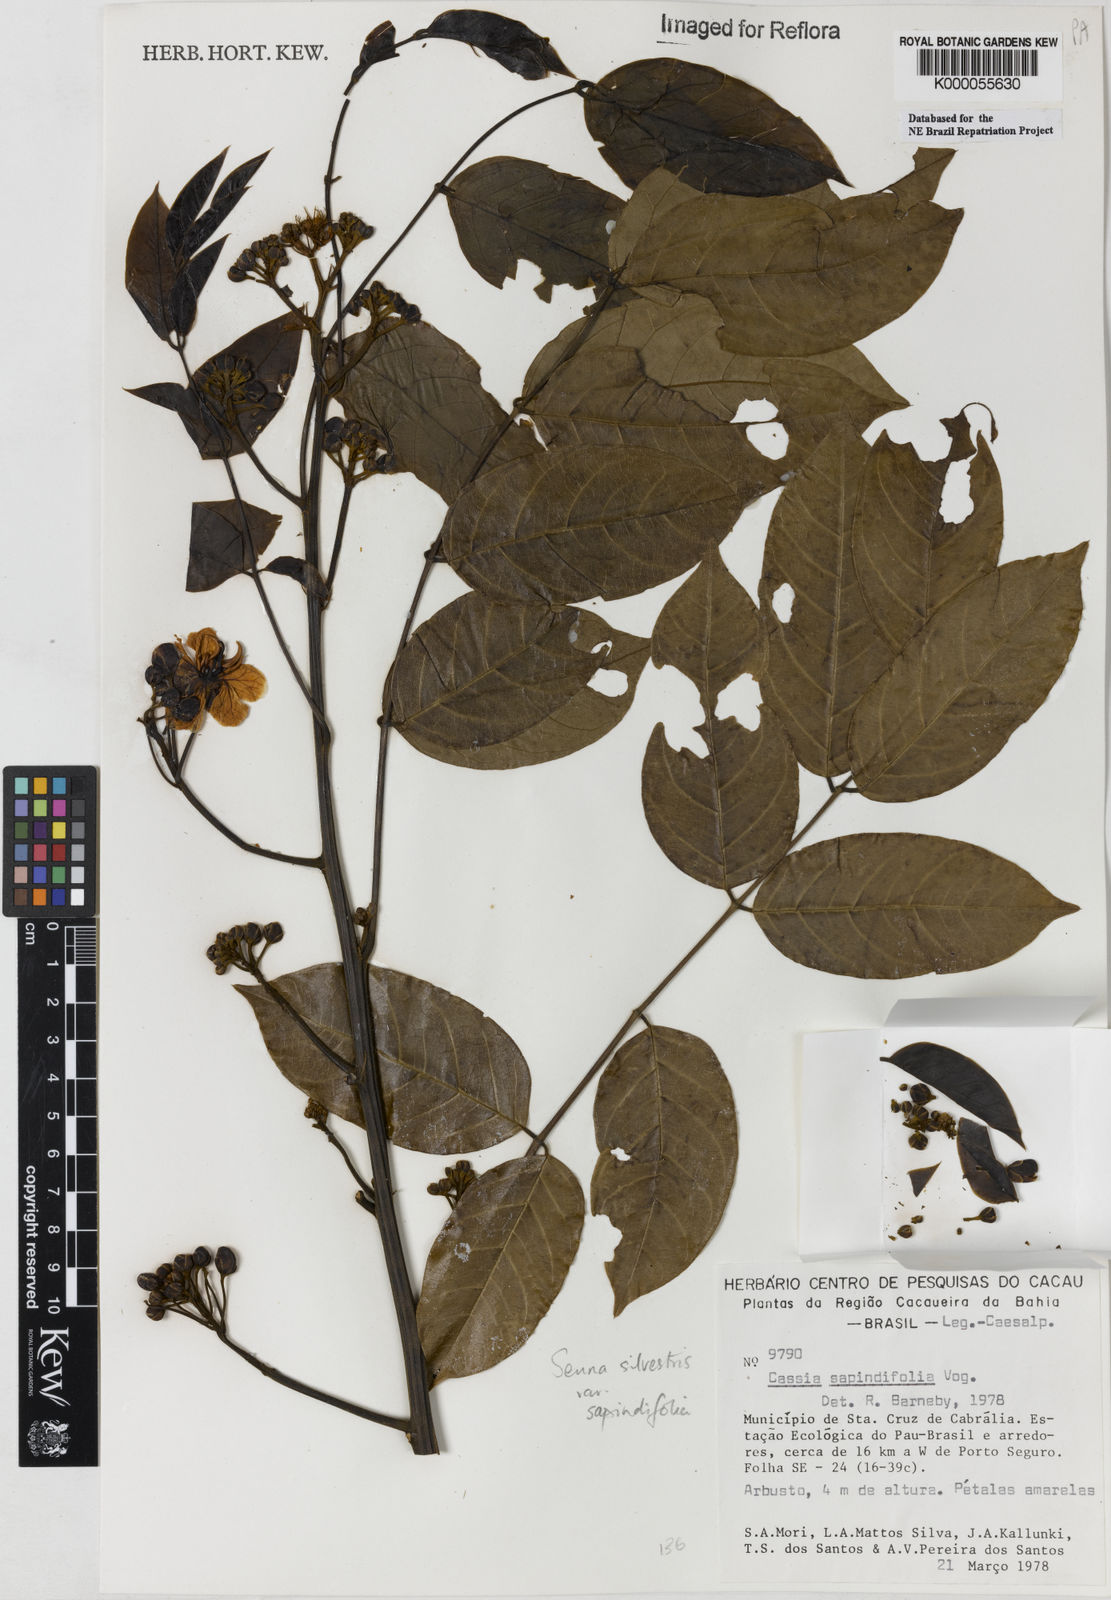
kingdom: Plantae
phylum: Tracheophyta
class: Magnoliopsida
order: Fabales
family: Fabaceae
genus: Senna
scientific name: Senna silvestris
